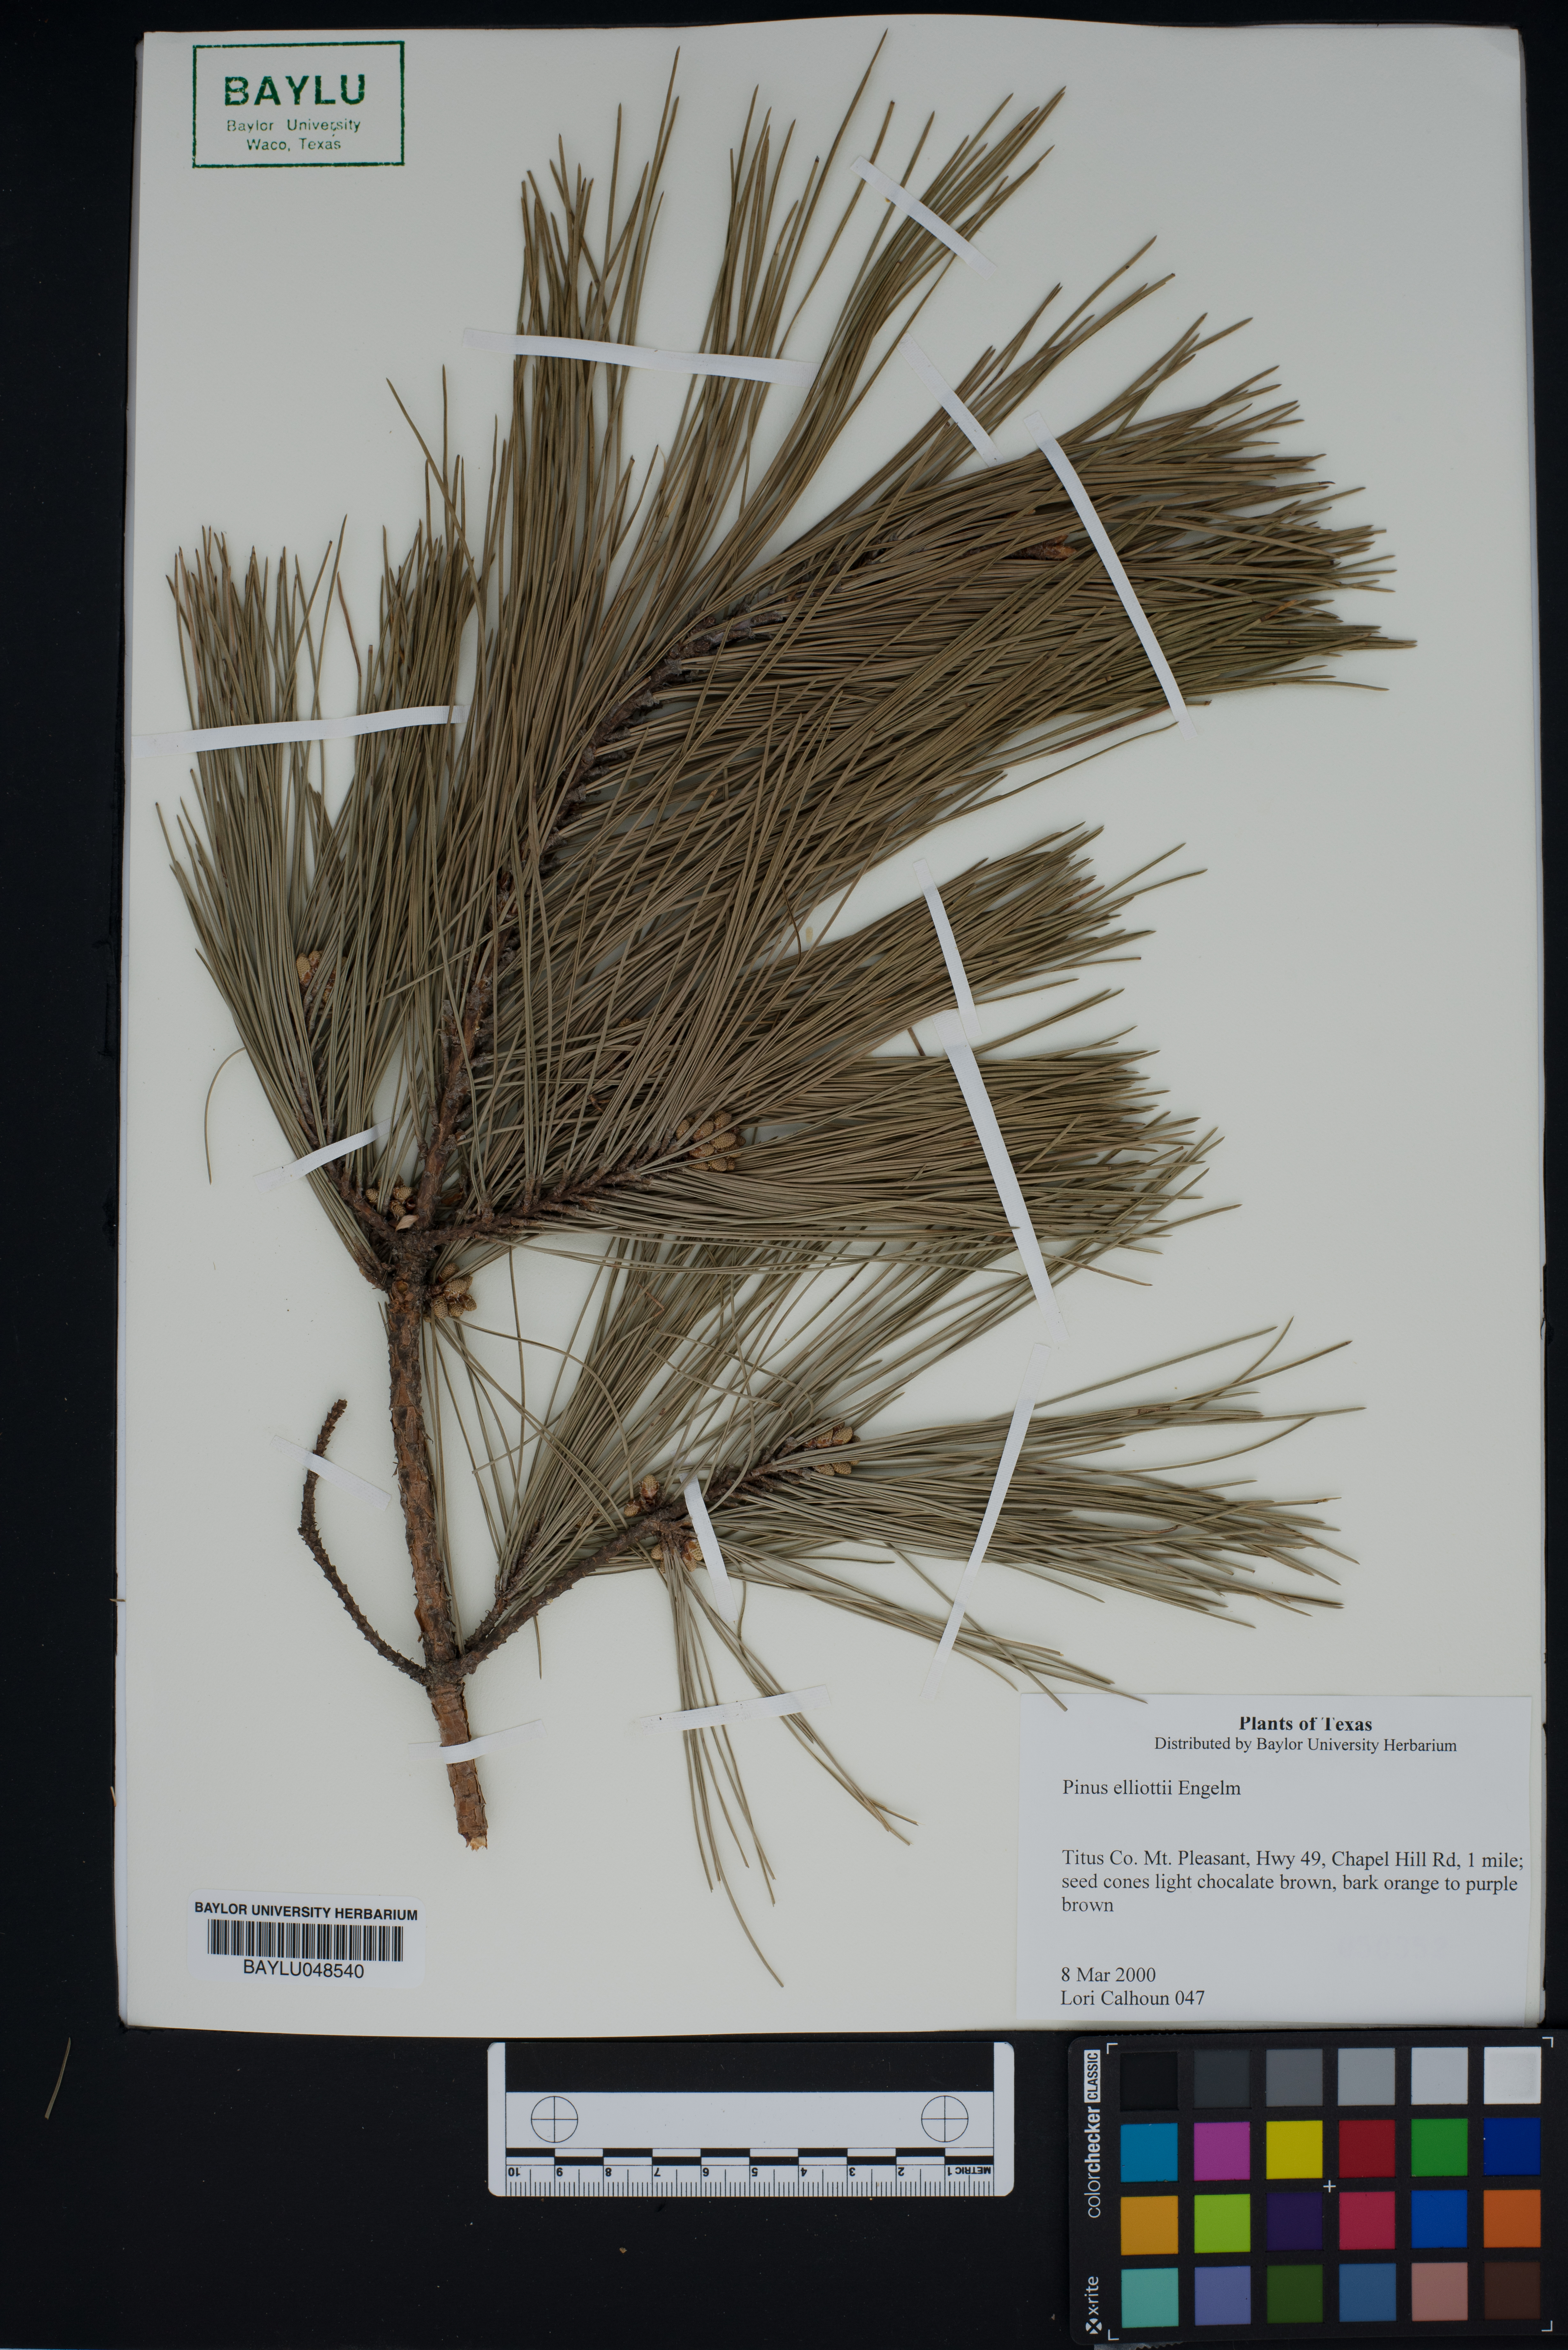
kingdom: Plantae
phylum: Tracheophyta
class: Pinopsida
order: Pinales
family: Pinaceae
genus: Pinus
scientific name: Pinus elliottii
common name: Slash pine
